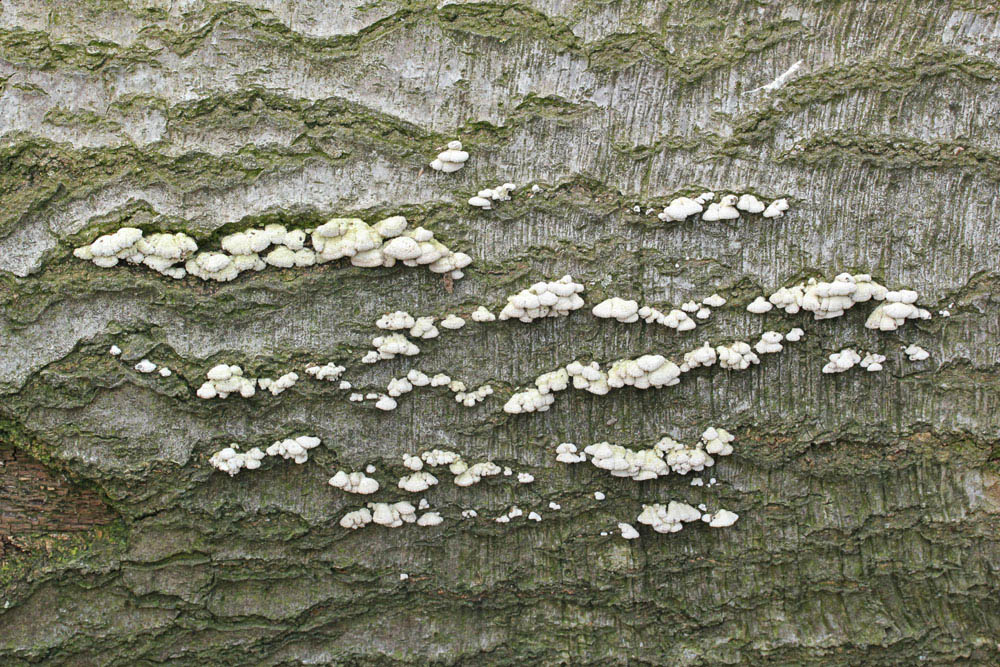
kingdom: Fungi
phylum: Basidiomycota
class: Agaricomycetes
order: Agaricales
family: Schizophyllaceae
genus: Schizophyllum
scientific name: Schizophyllum commune
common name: kløvblad
